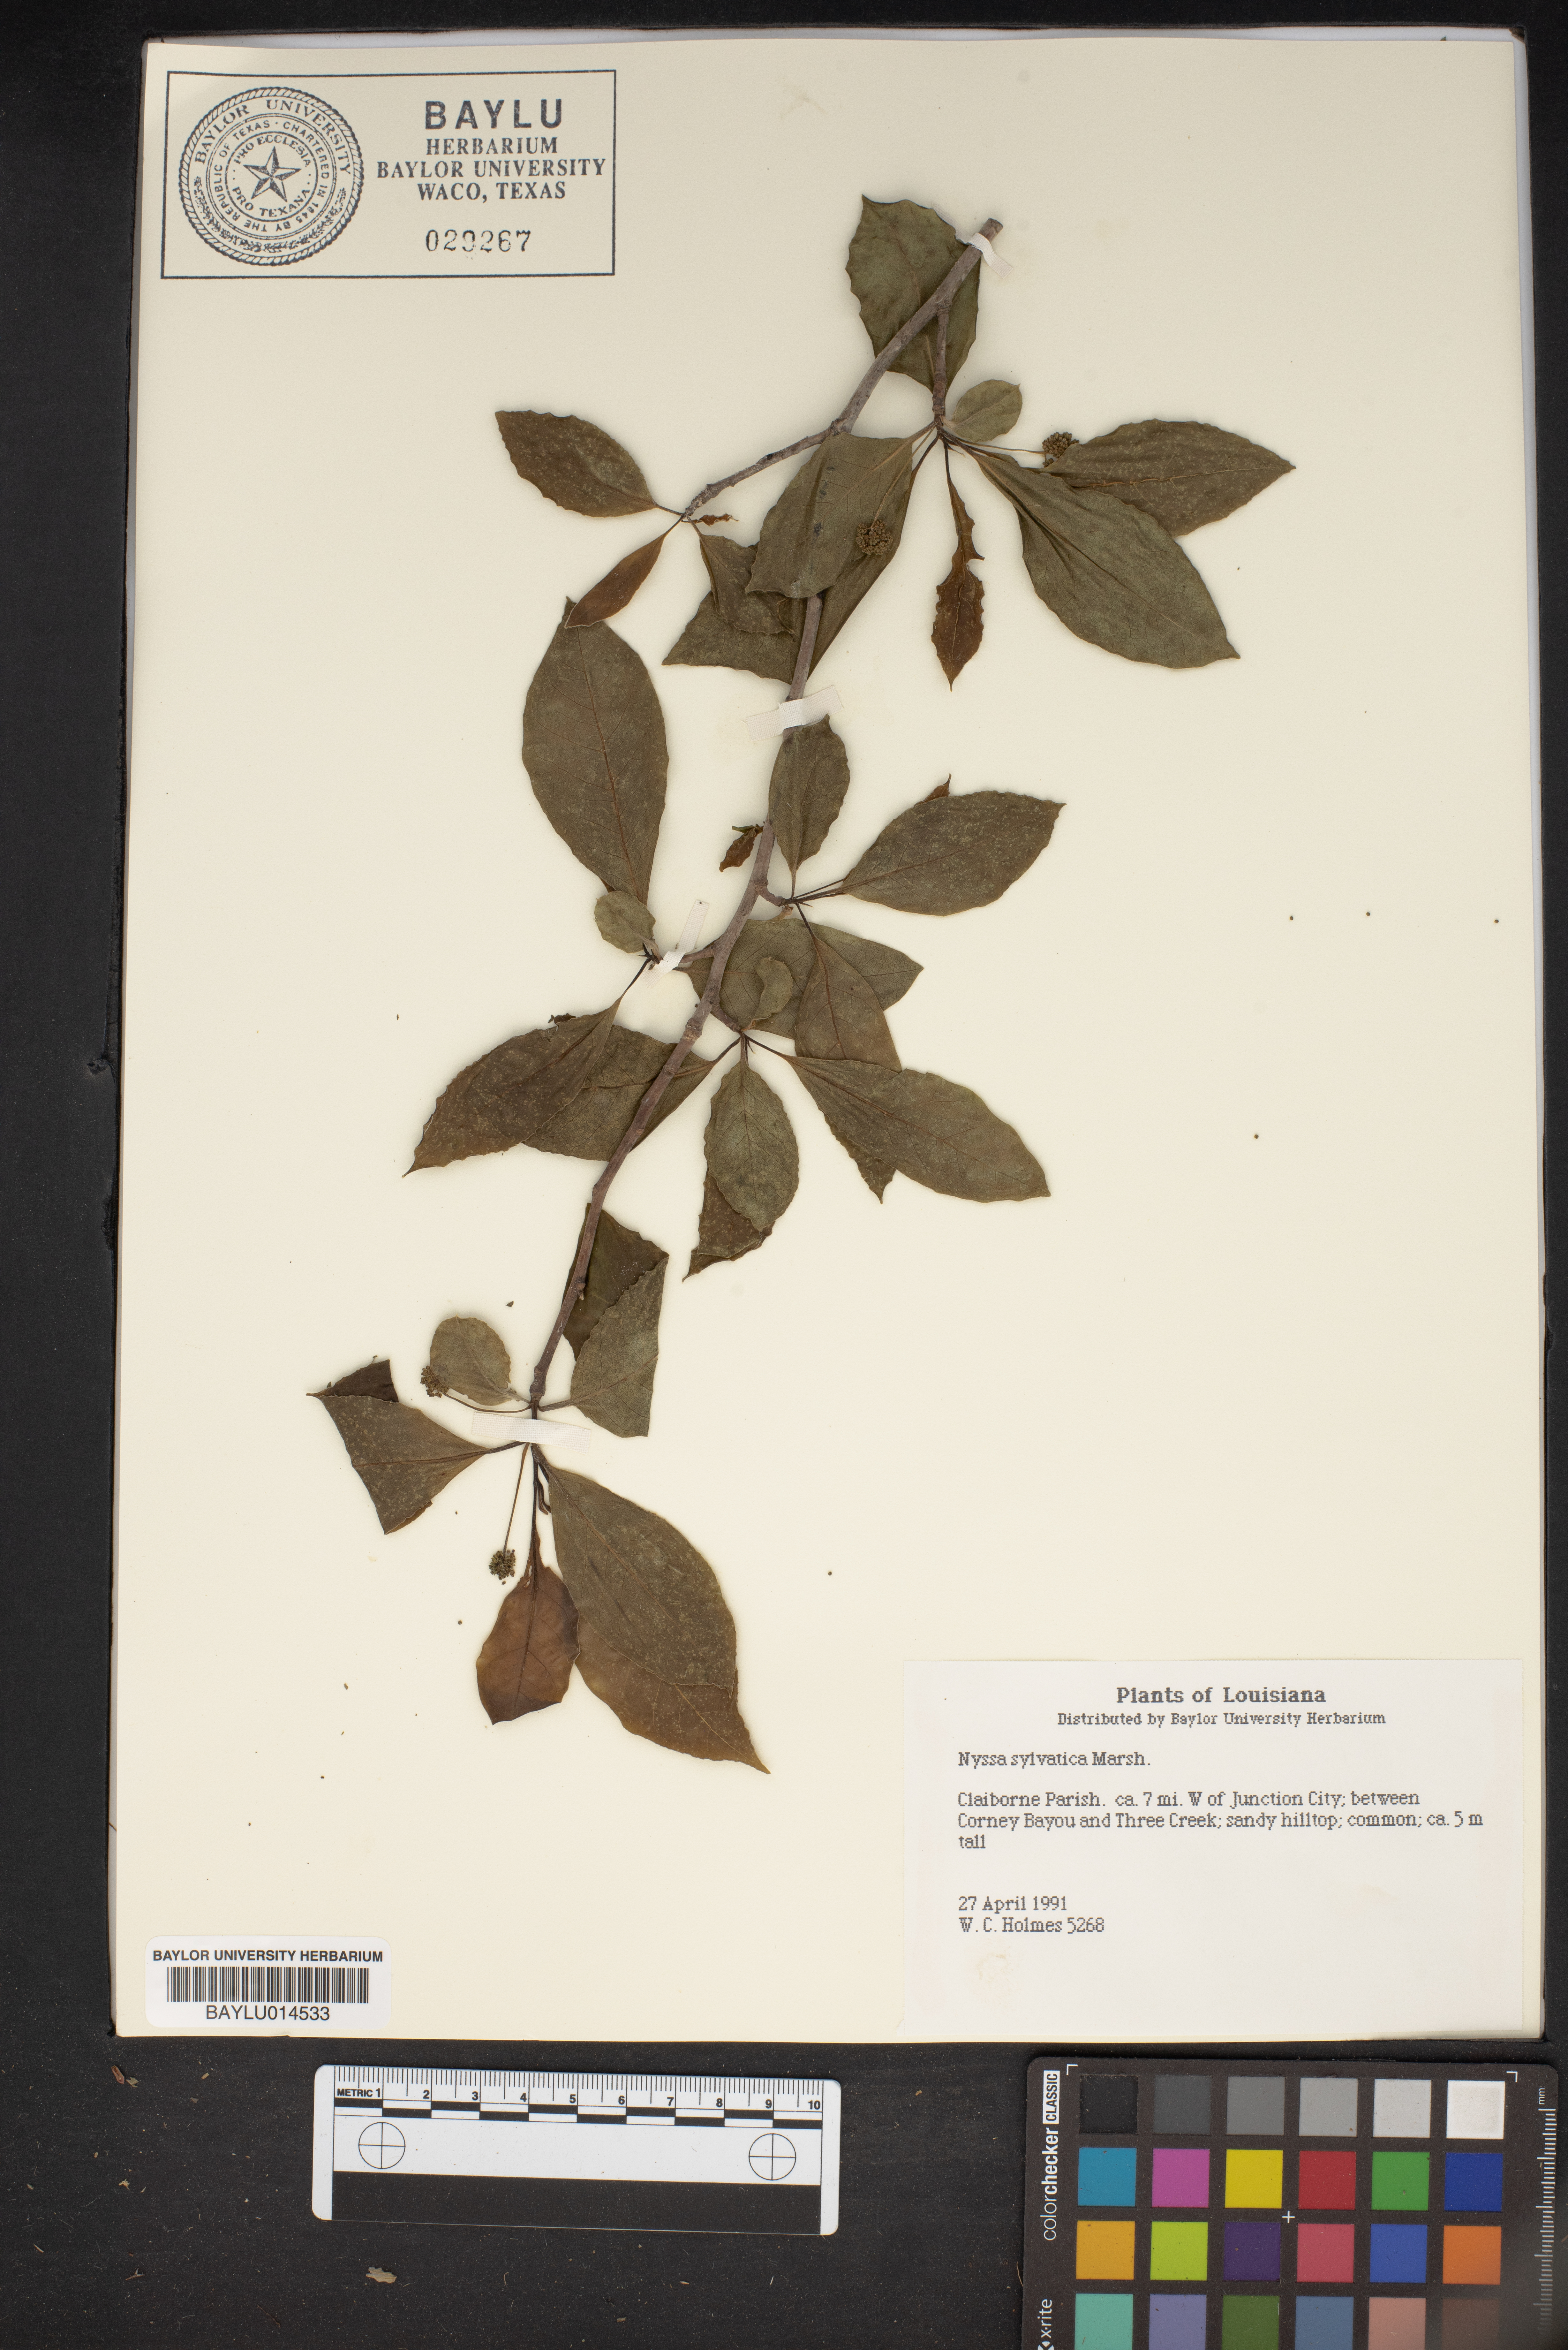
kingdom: Plantae
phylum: Tracheophyta
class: Magnoliopsida
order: Cornales
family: Nyssaceae
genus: Nyssa
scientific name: Nyssa sylvatica
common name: Black tupelo
